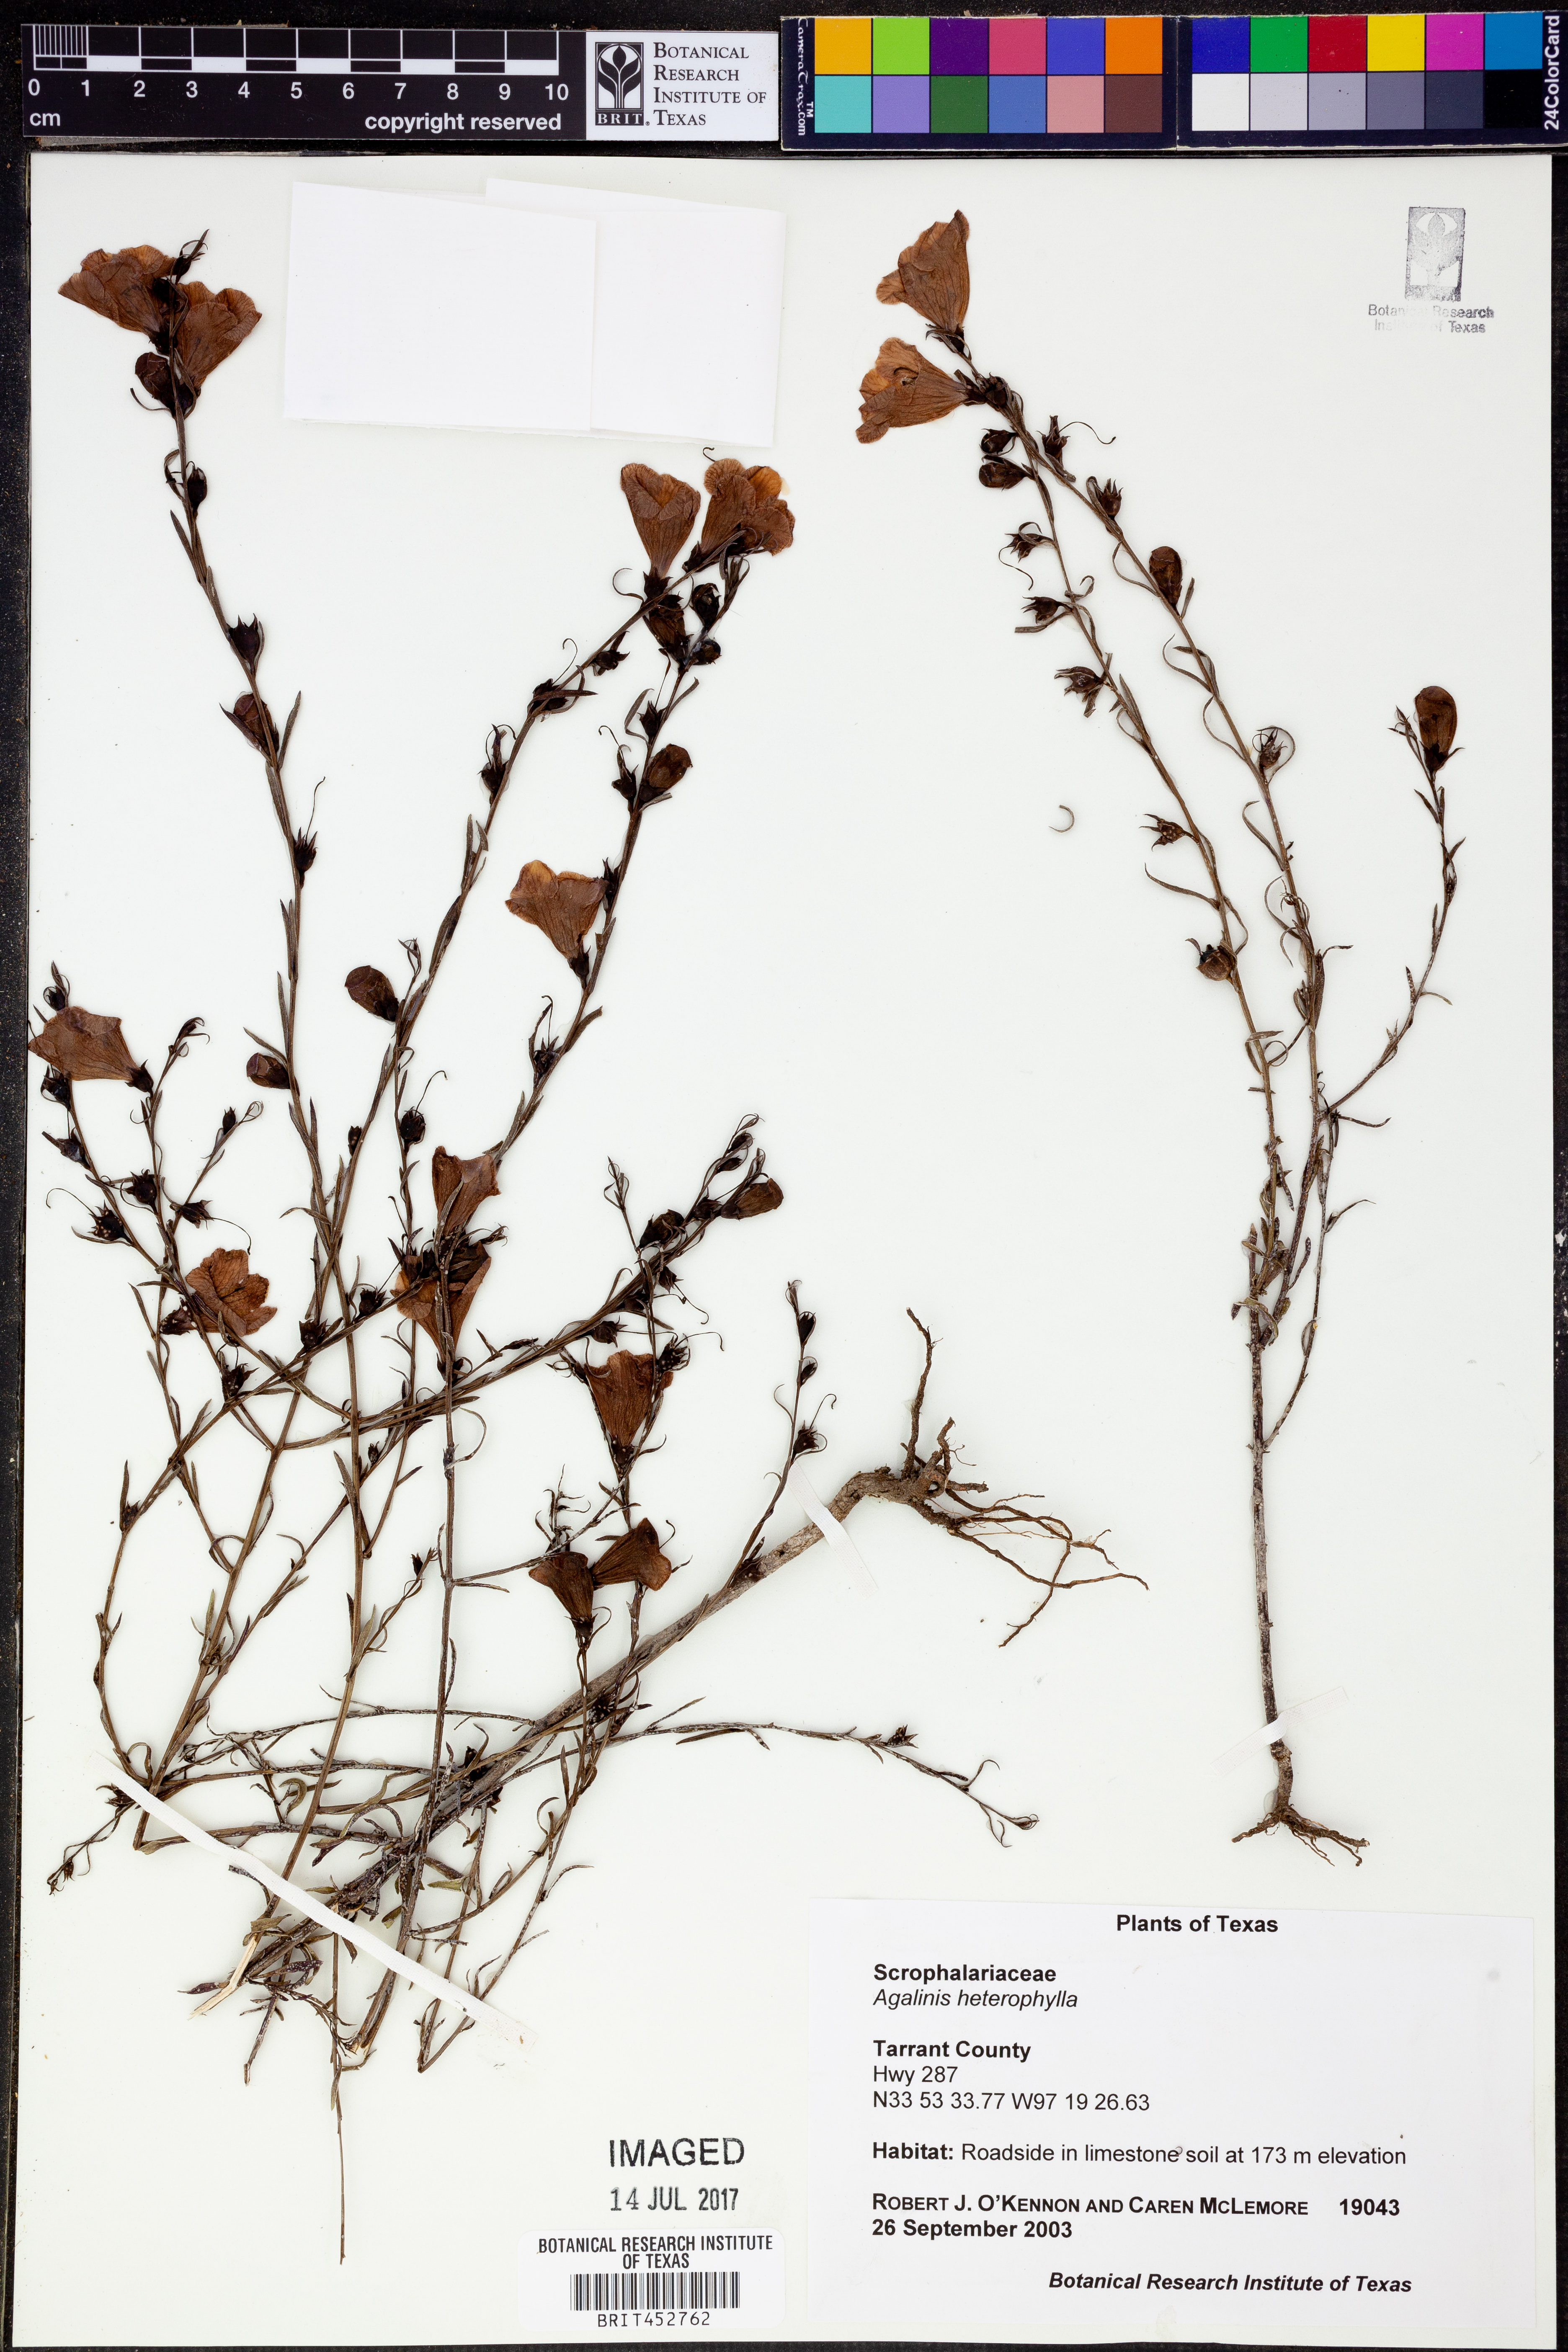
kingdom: Plantae
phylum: Tracheophyta
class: Magnoliopsida
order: Lamiales
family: Orobanchaceae
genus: Agalinis
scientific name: Agalinis heterophylla
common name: Prairie agalinis
